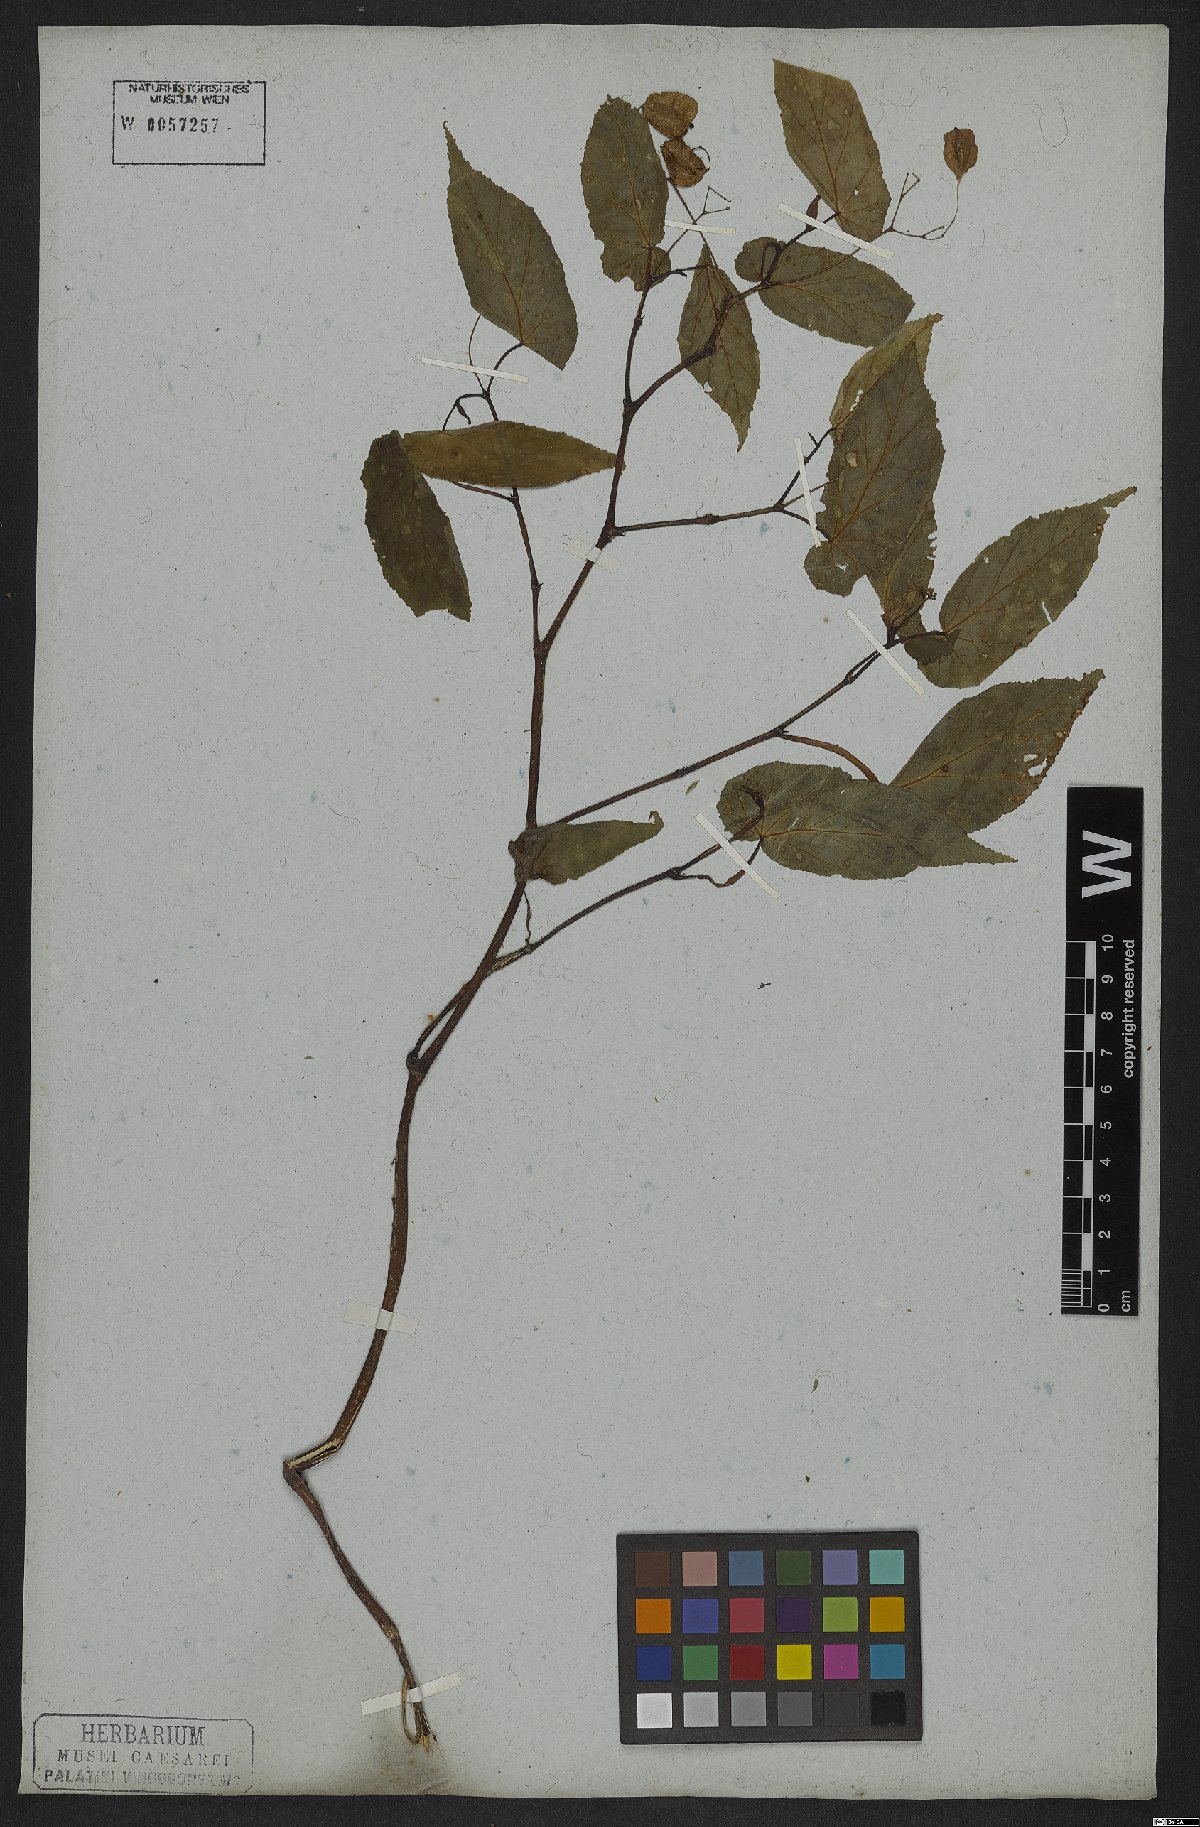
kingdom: Plantae
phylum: Tracheophyta
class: Magnoliopsida
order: Cucurbitales
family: Begoniaceae
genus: Begonia
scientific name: Begonia fischeri
